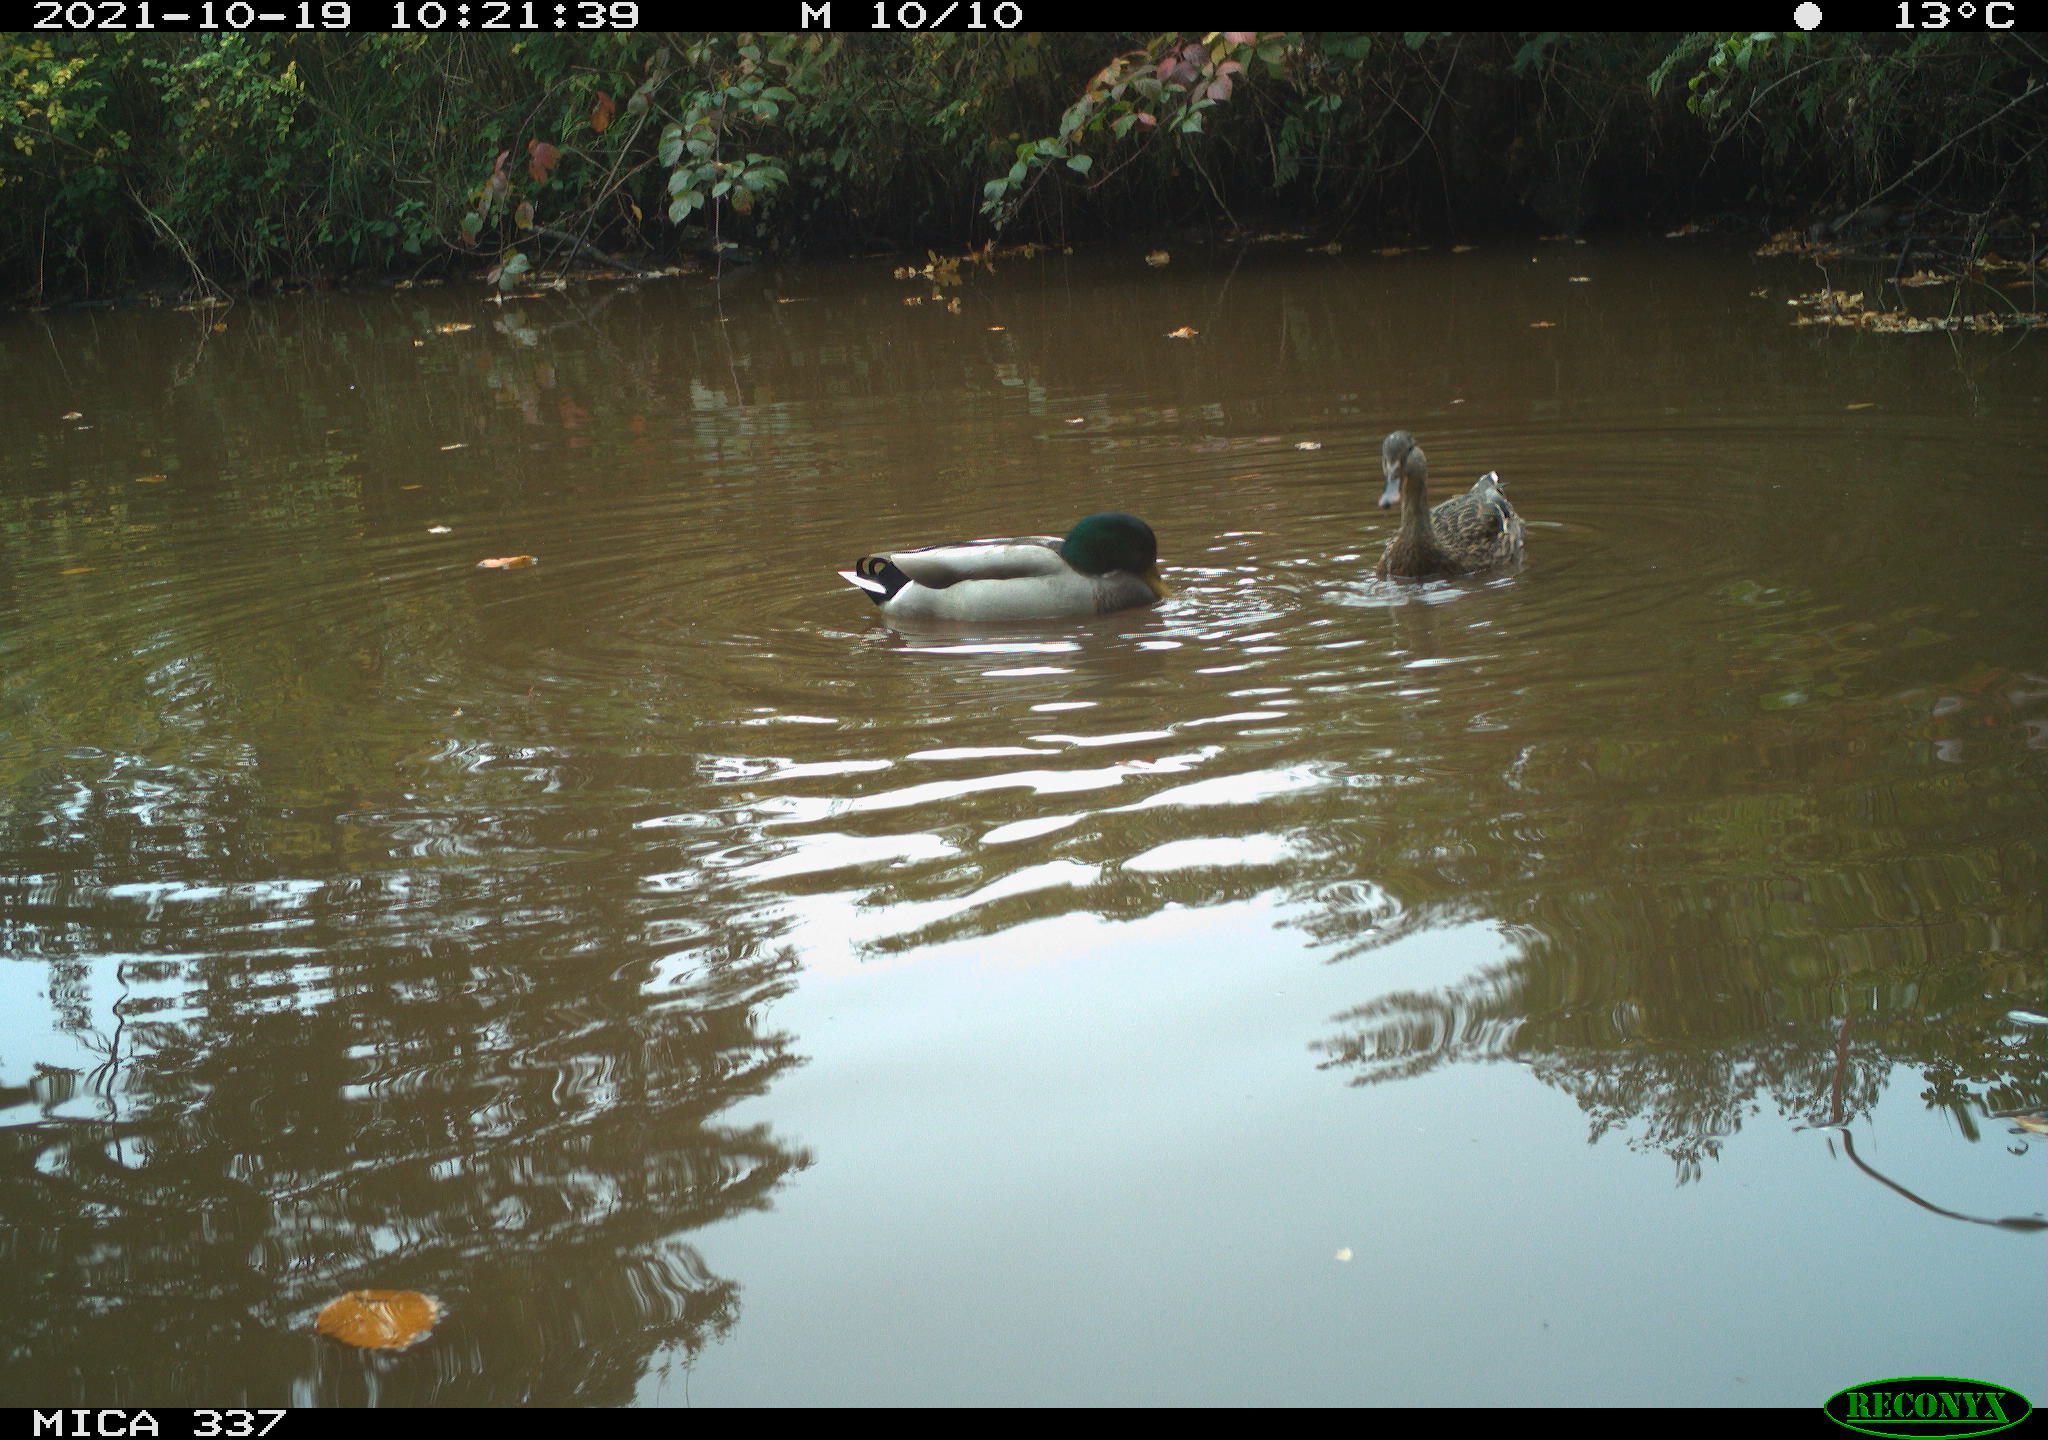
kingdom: Animalia
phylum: Chordata
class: Aves
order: Anseriformes
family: Anatidae
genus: Anas
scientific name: Anas platyrhynchos
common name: Mallard
